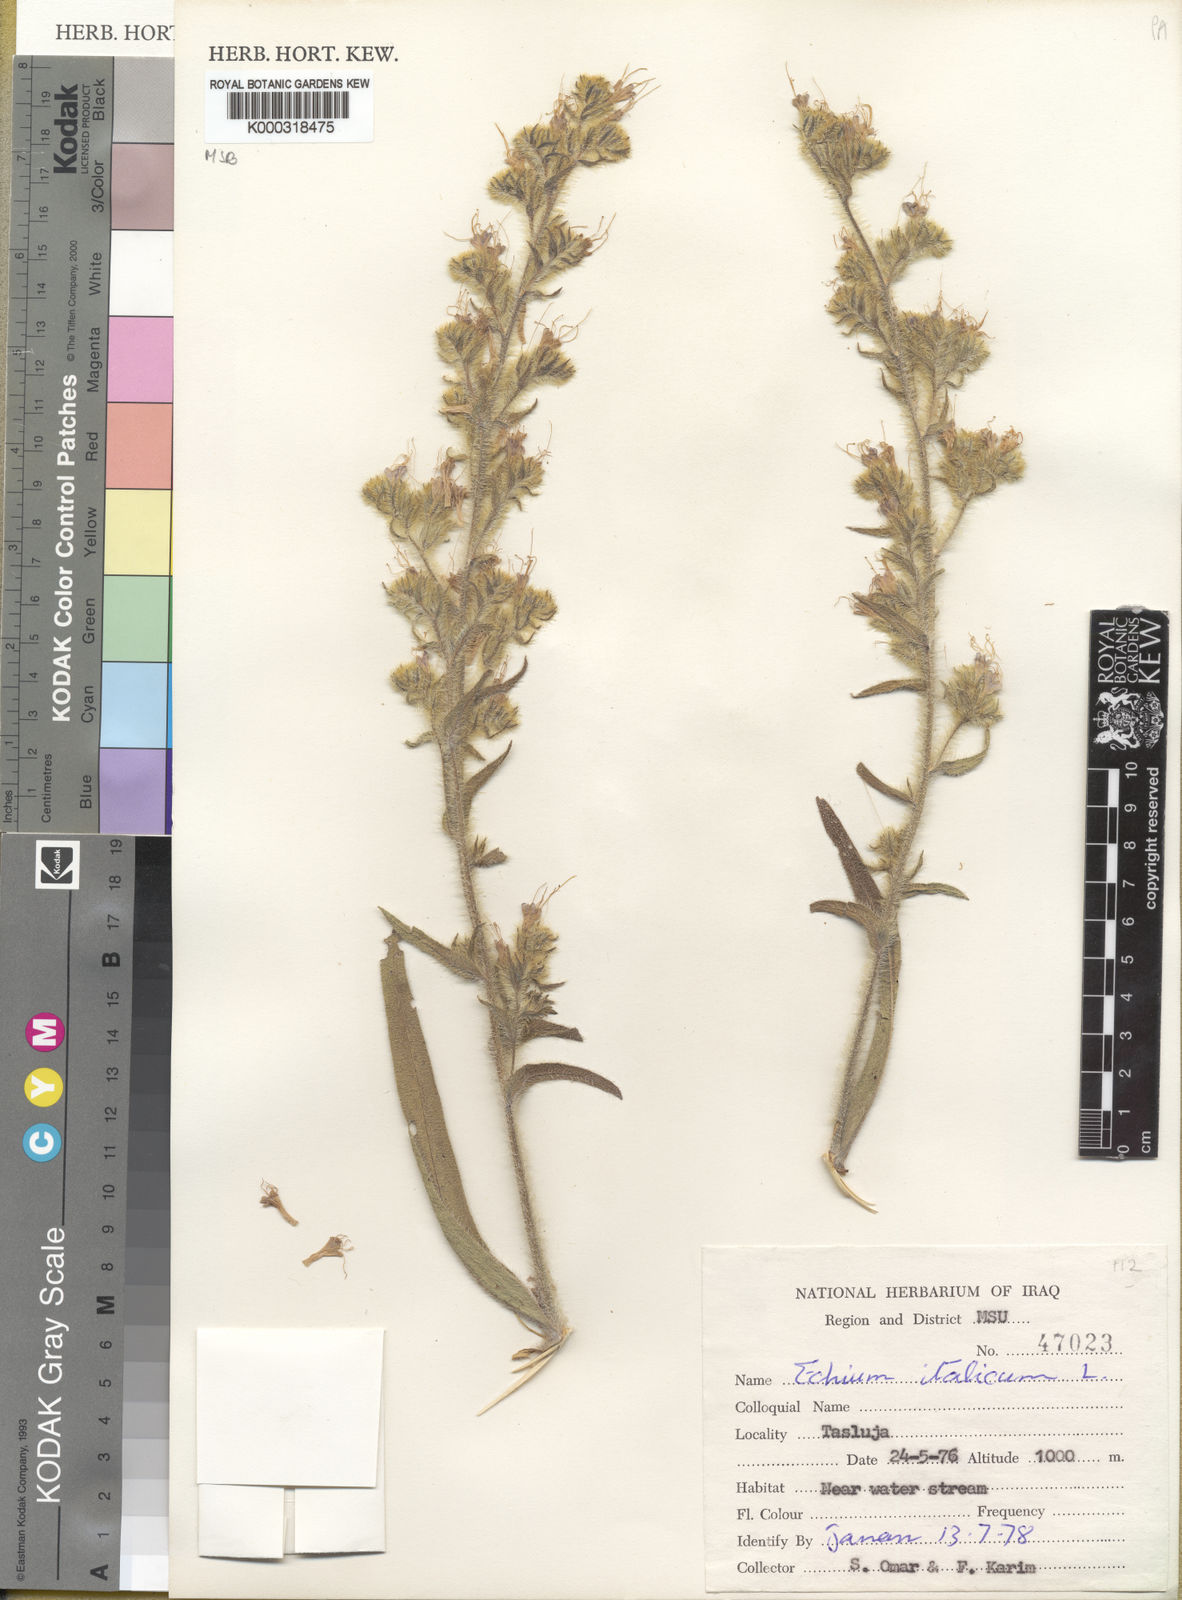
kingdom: Plantae
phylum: Tracheophyta
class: Magnoliopsida
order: Boraginales
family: Boraginaceae
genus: Echium
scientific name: Echium italicum
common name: Italian viper's bugloss
